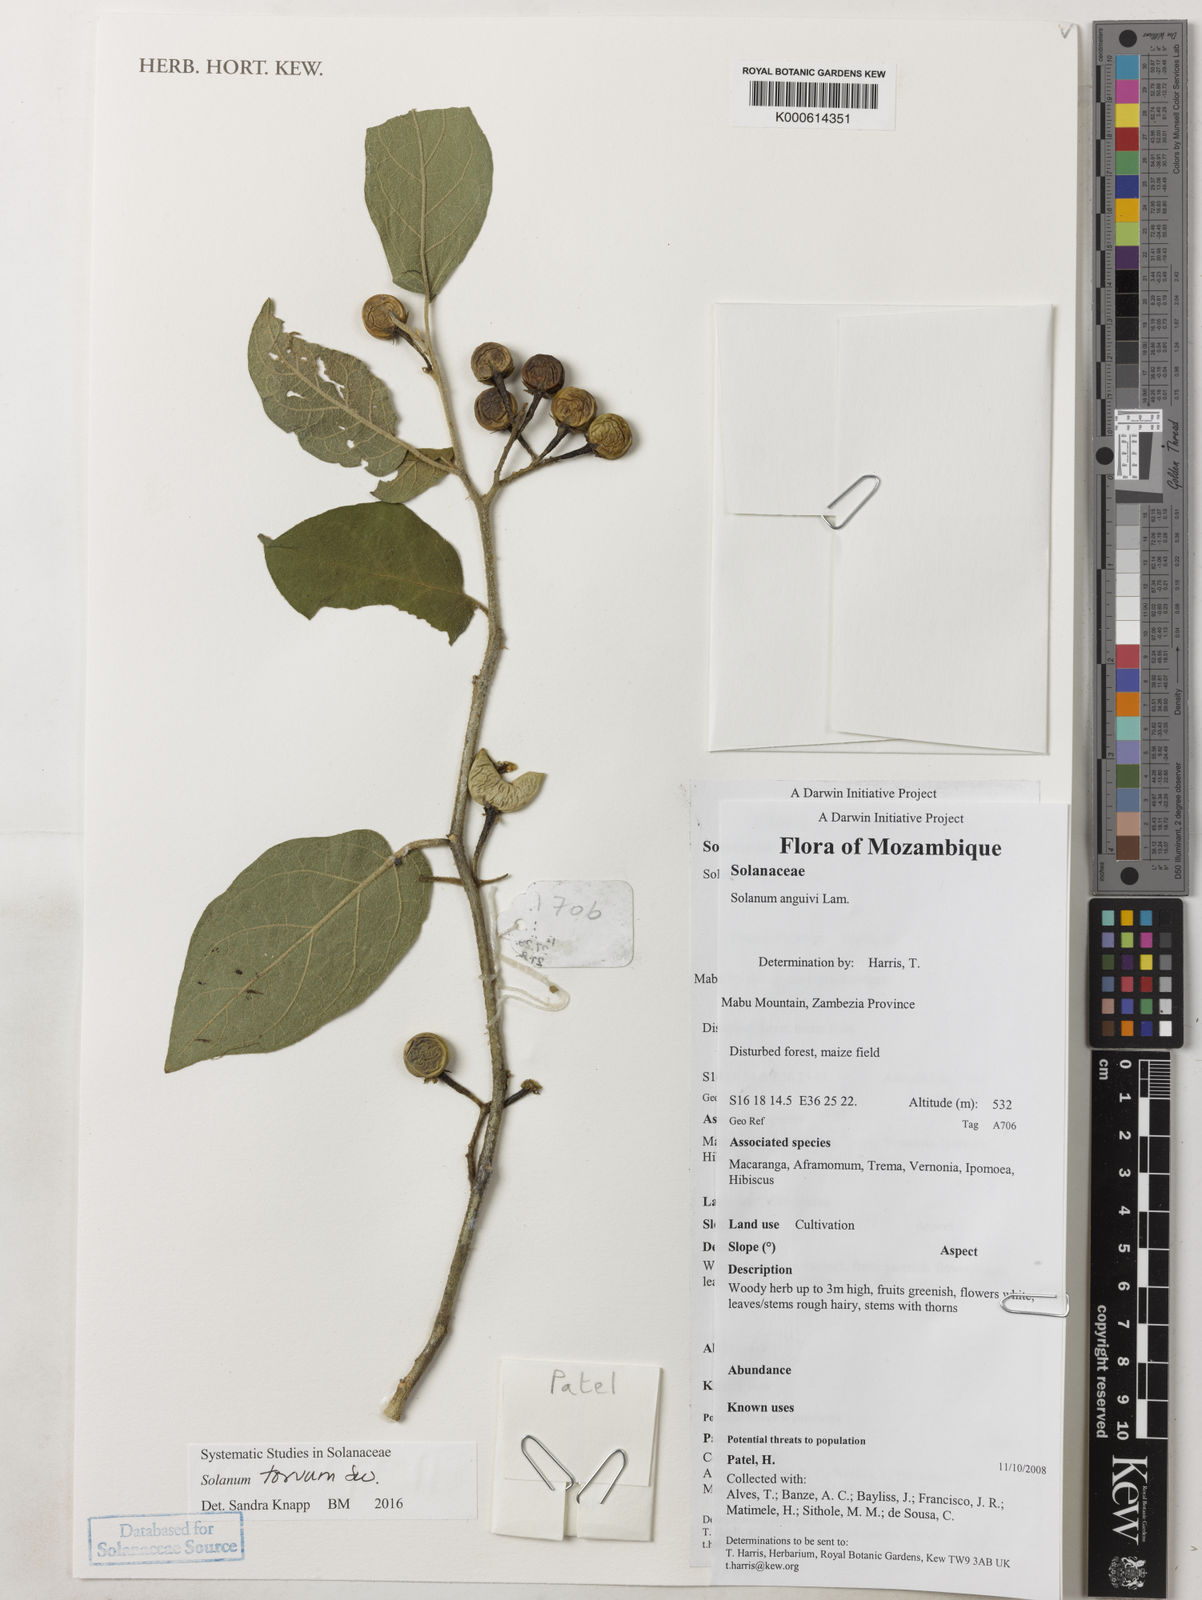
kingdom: Plantae
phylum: Tracheophyta
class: Magnoliopsida
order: Solanales
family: Solanaceae
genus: Solanum
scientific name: Solanum anguivi
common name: Forest bitterberry
